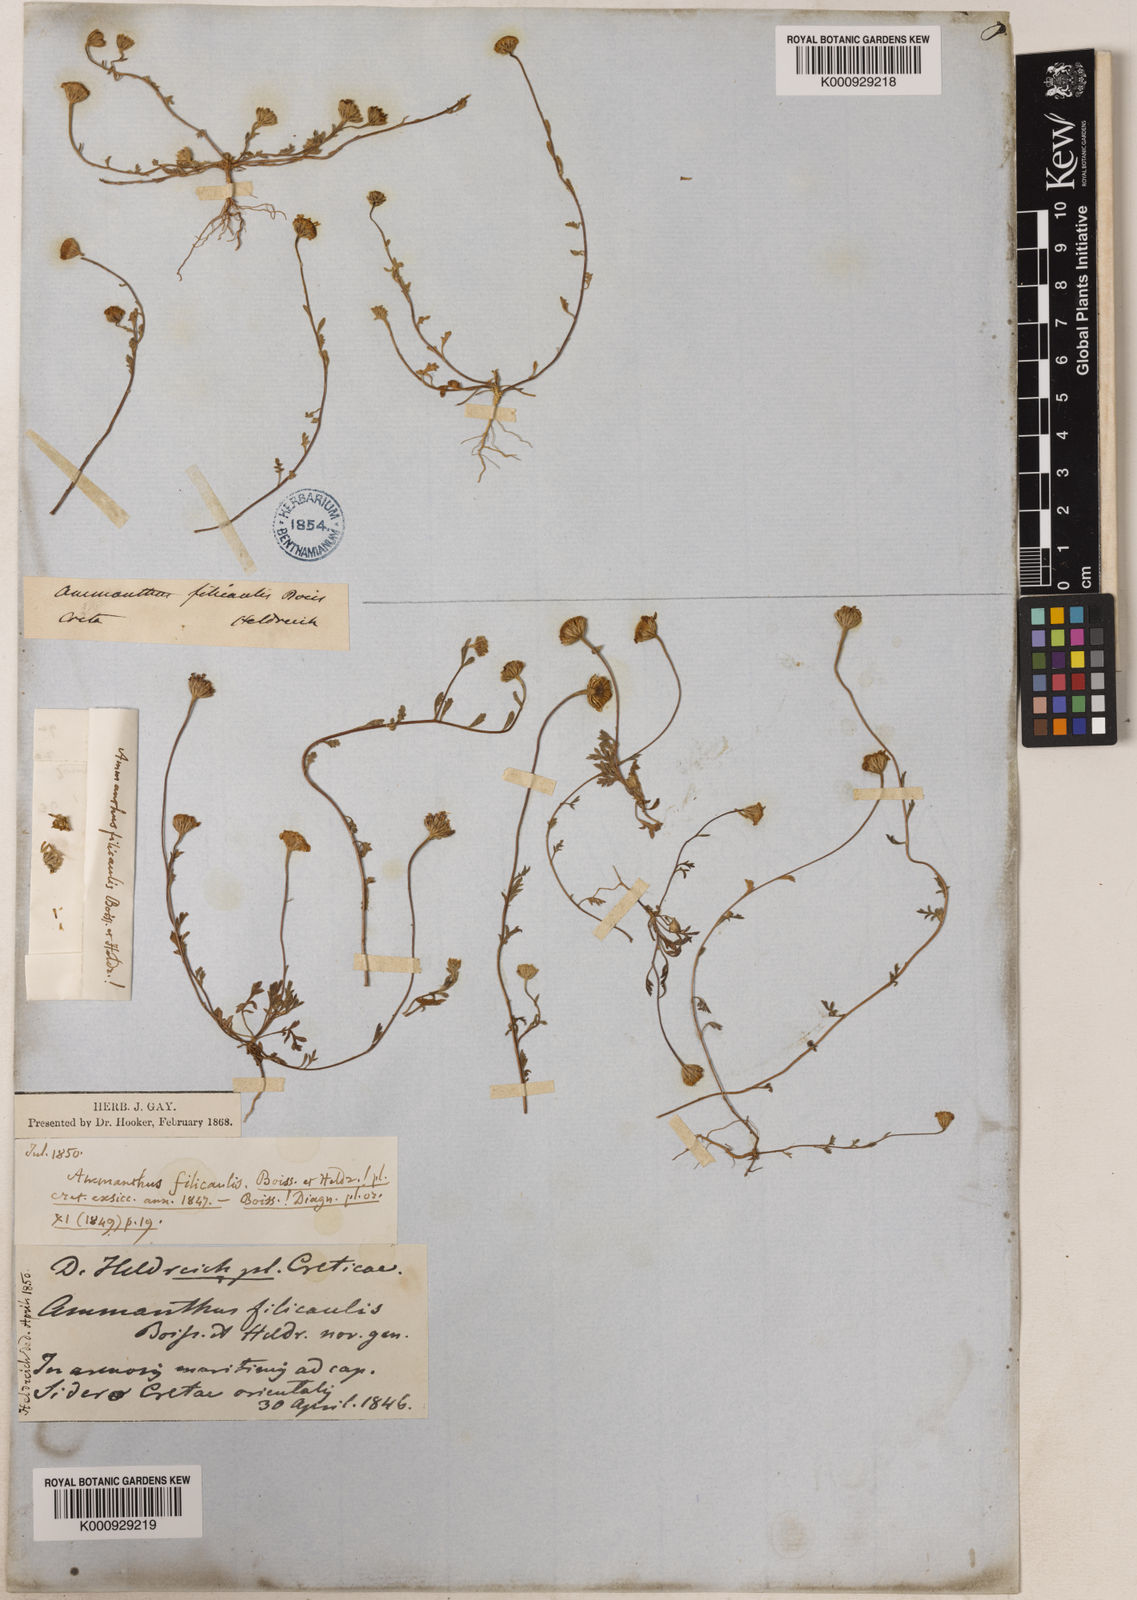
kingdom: Plantae
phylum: Tracheophyta
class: Magnoliopsida
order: Asterales
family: Asteraceae
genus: Anthemis
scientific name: Anthemis filicaulis
